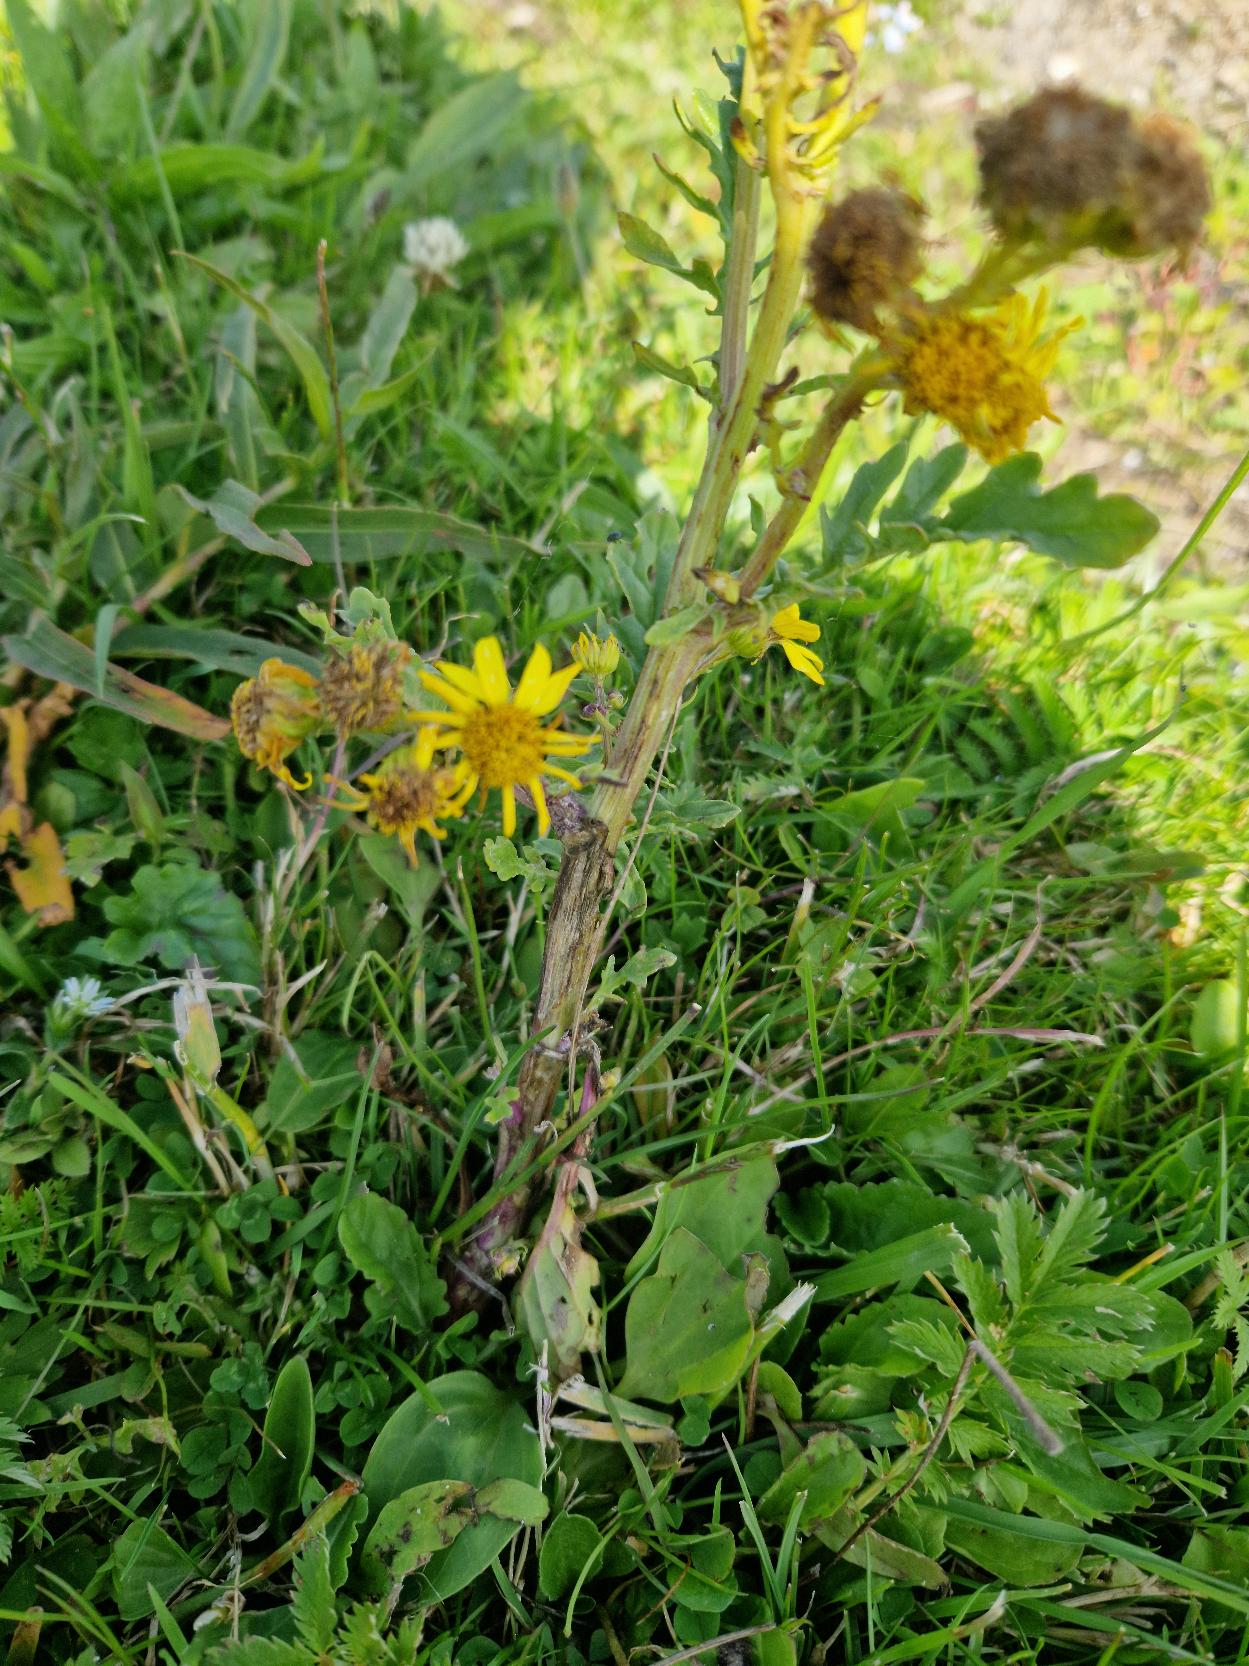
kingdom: Plantae
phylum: Tracheophyta
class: Magnoliopsida
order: Asterales
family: Asteraceae
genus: Jacobaea
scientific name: Jacobaea aquatica
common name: Vand-brandbæger
